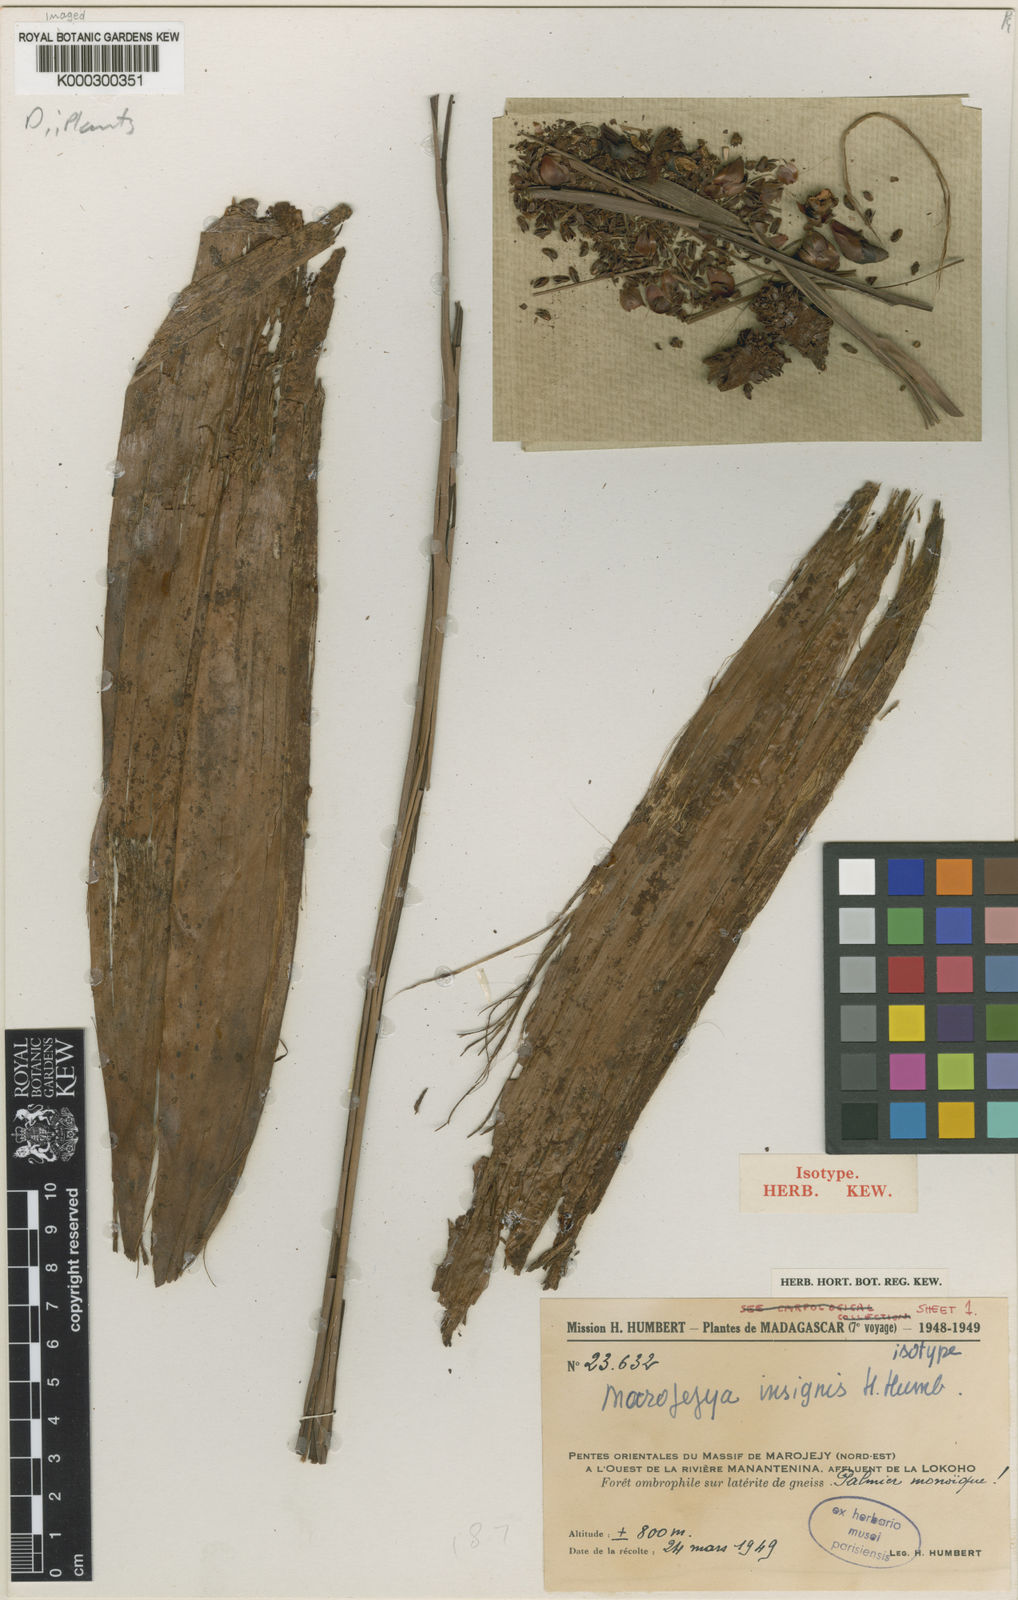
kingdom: Plantae
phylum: Tracheophyta
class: Liliopsida
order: Arecales
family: Arecaceae
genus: Marojejya
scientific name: Marojejya insignis
